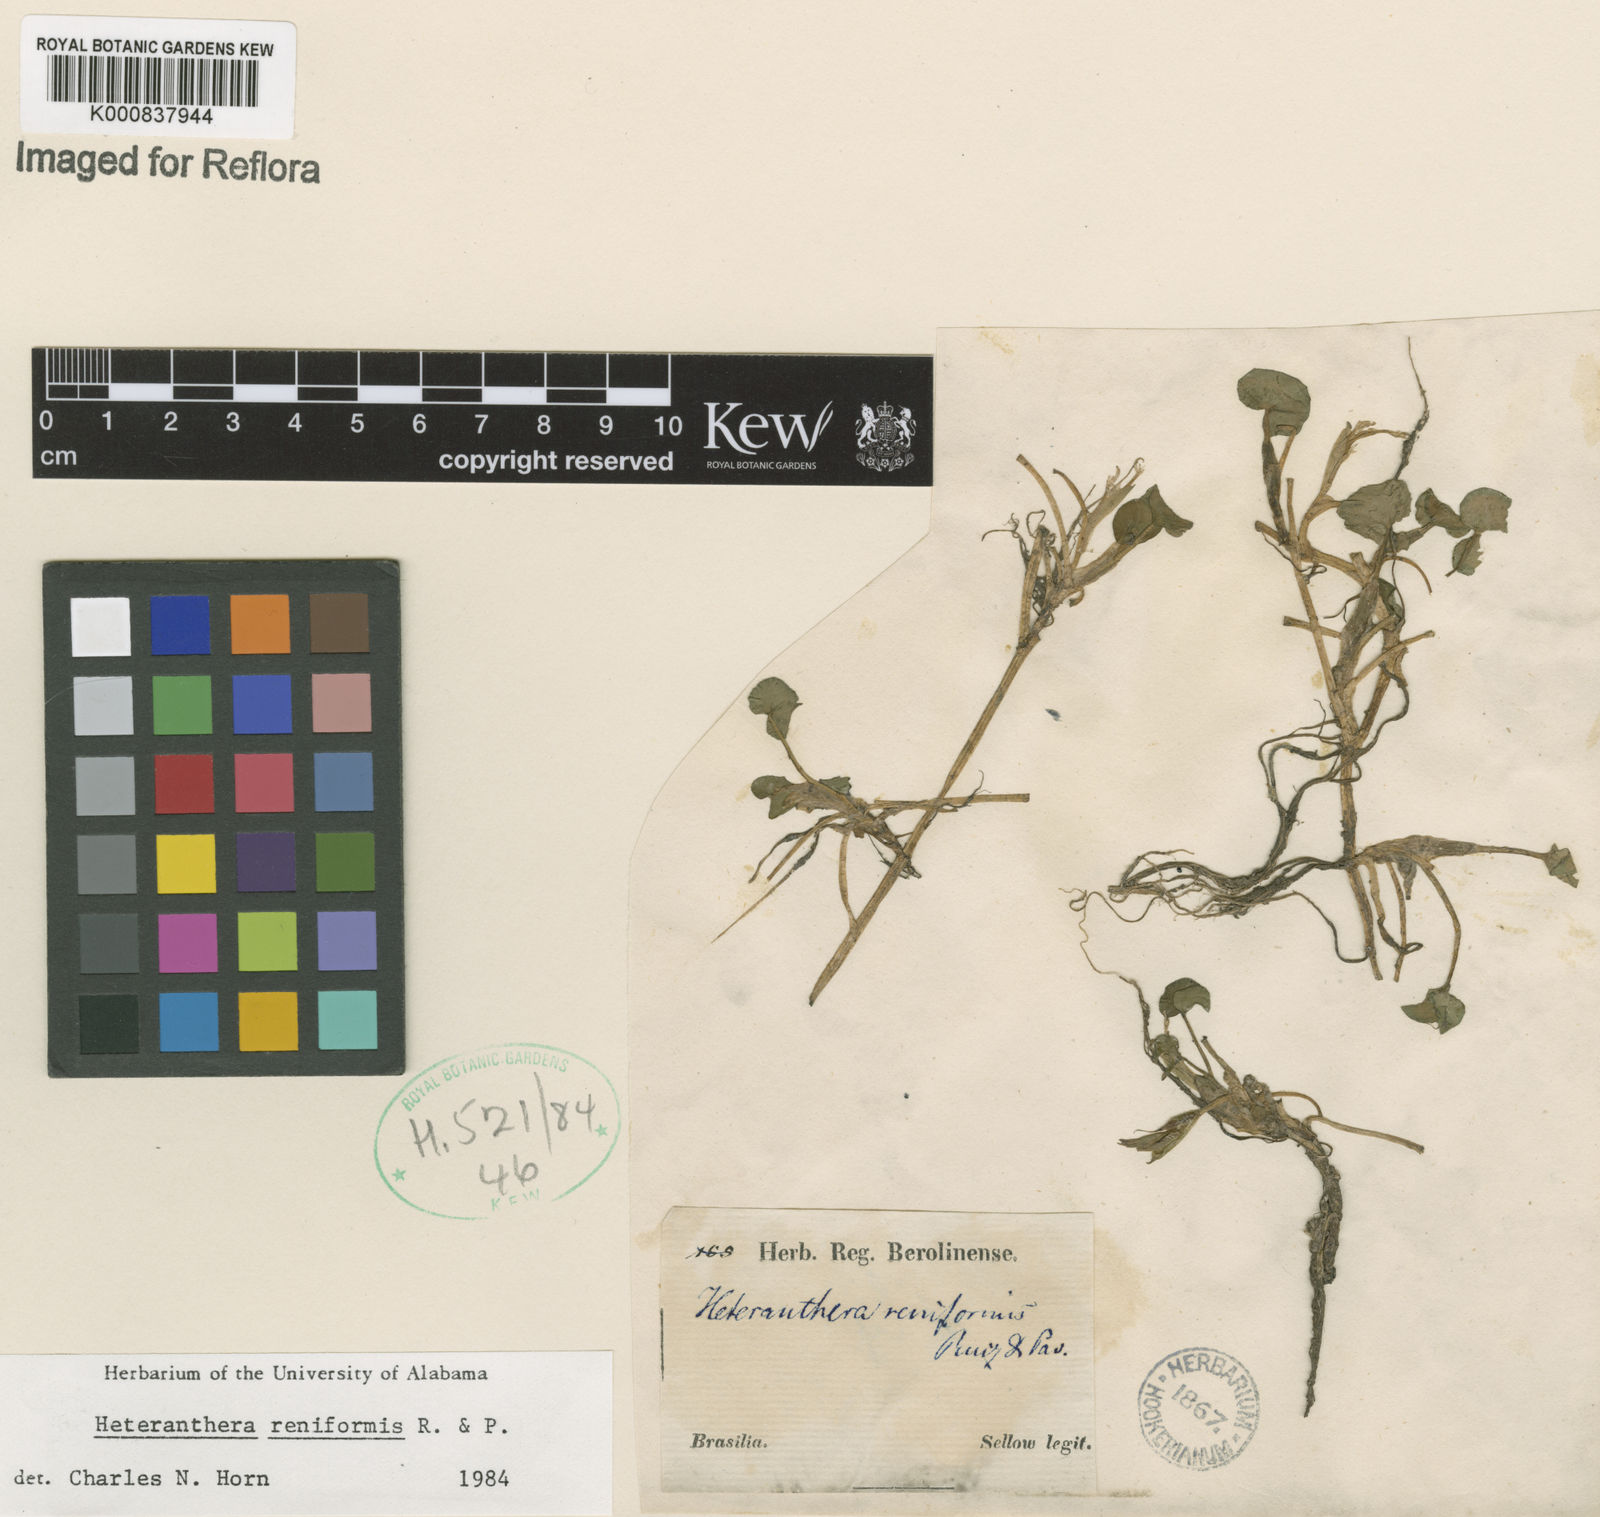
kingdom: Plantae
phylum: Tracheophyta
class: Liliopsida
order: Commelinales
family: Pontederiaceae
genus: Heteranthera
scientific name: Heteranthera reniformis
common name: Kidneyleaf mudplantain
